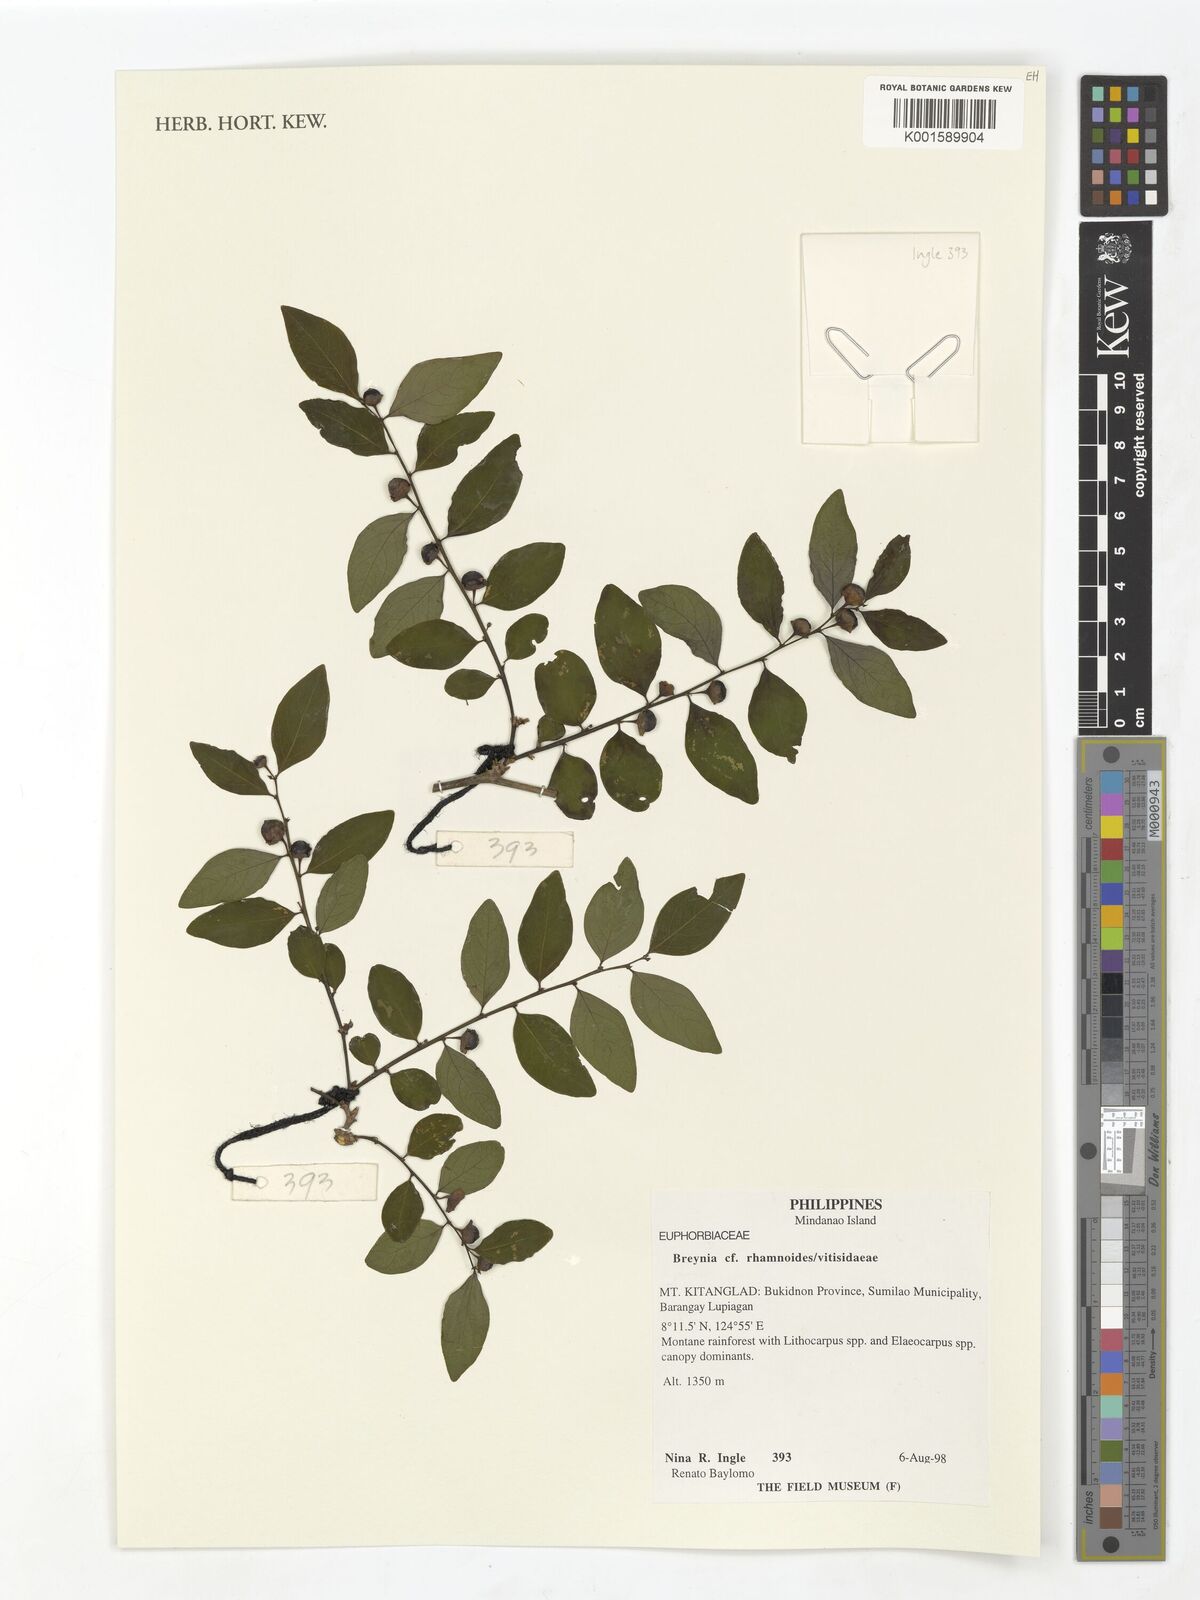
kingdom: Plantae
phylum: Tracheophyta
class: Magnoliopsida
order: Malpighiales
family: Phyllanthaceae
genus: Breynia
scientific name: Breynia vitis-idaea
